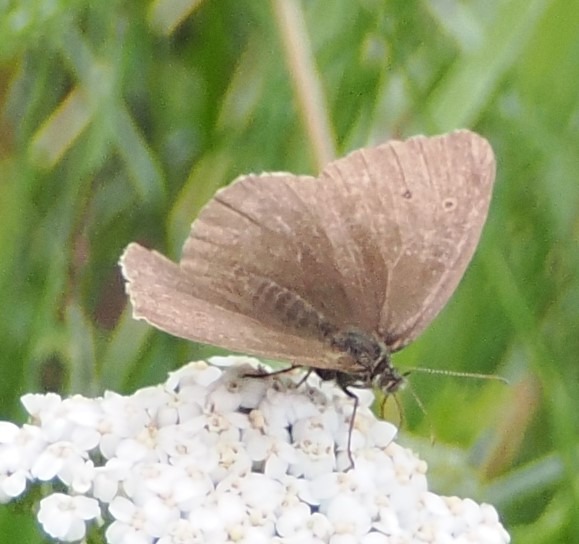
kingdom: Animalia
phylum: Arthropoda
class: Insecta
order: Lepidoptera
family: Nymphalidae
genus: Aphantopus
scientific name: Aphantopus hyperantus
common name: Engrandøje
